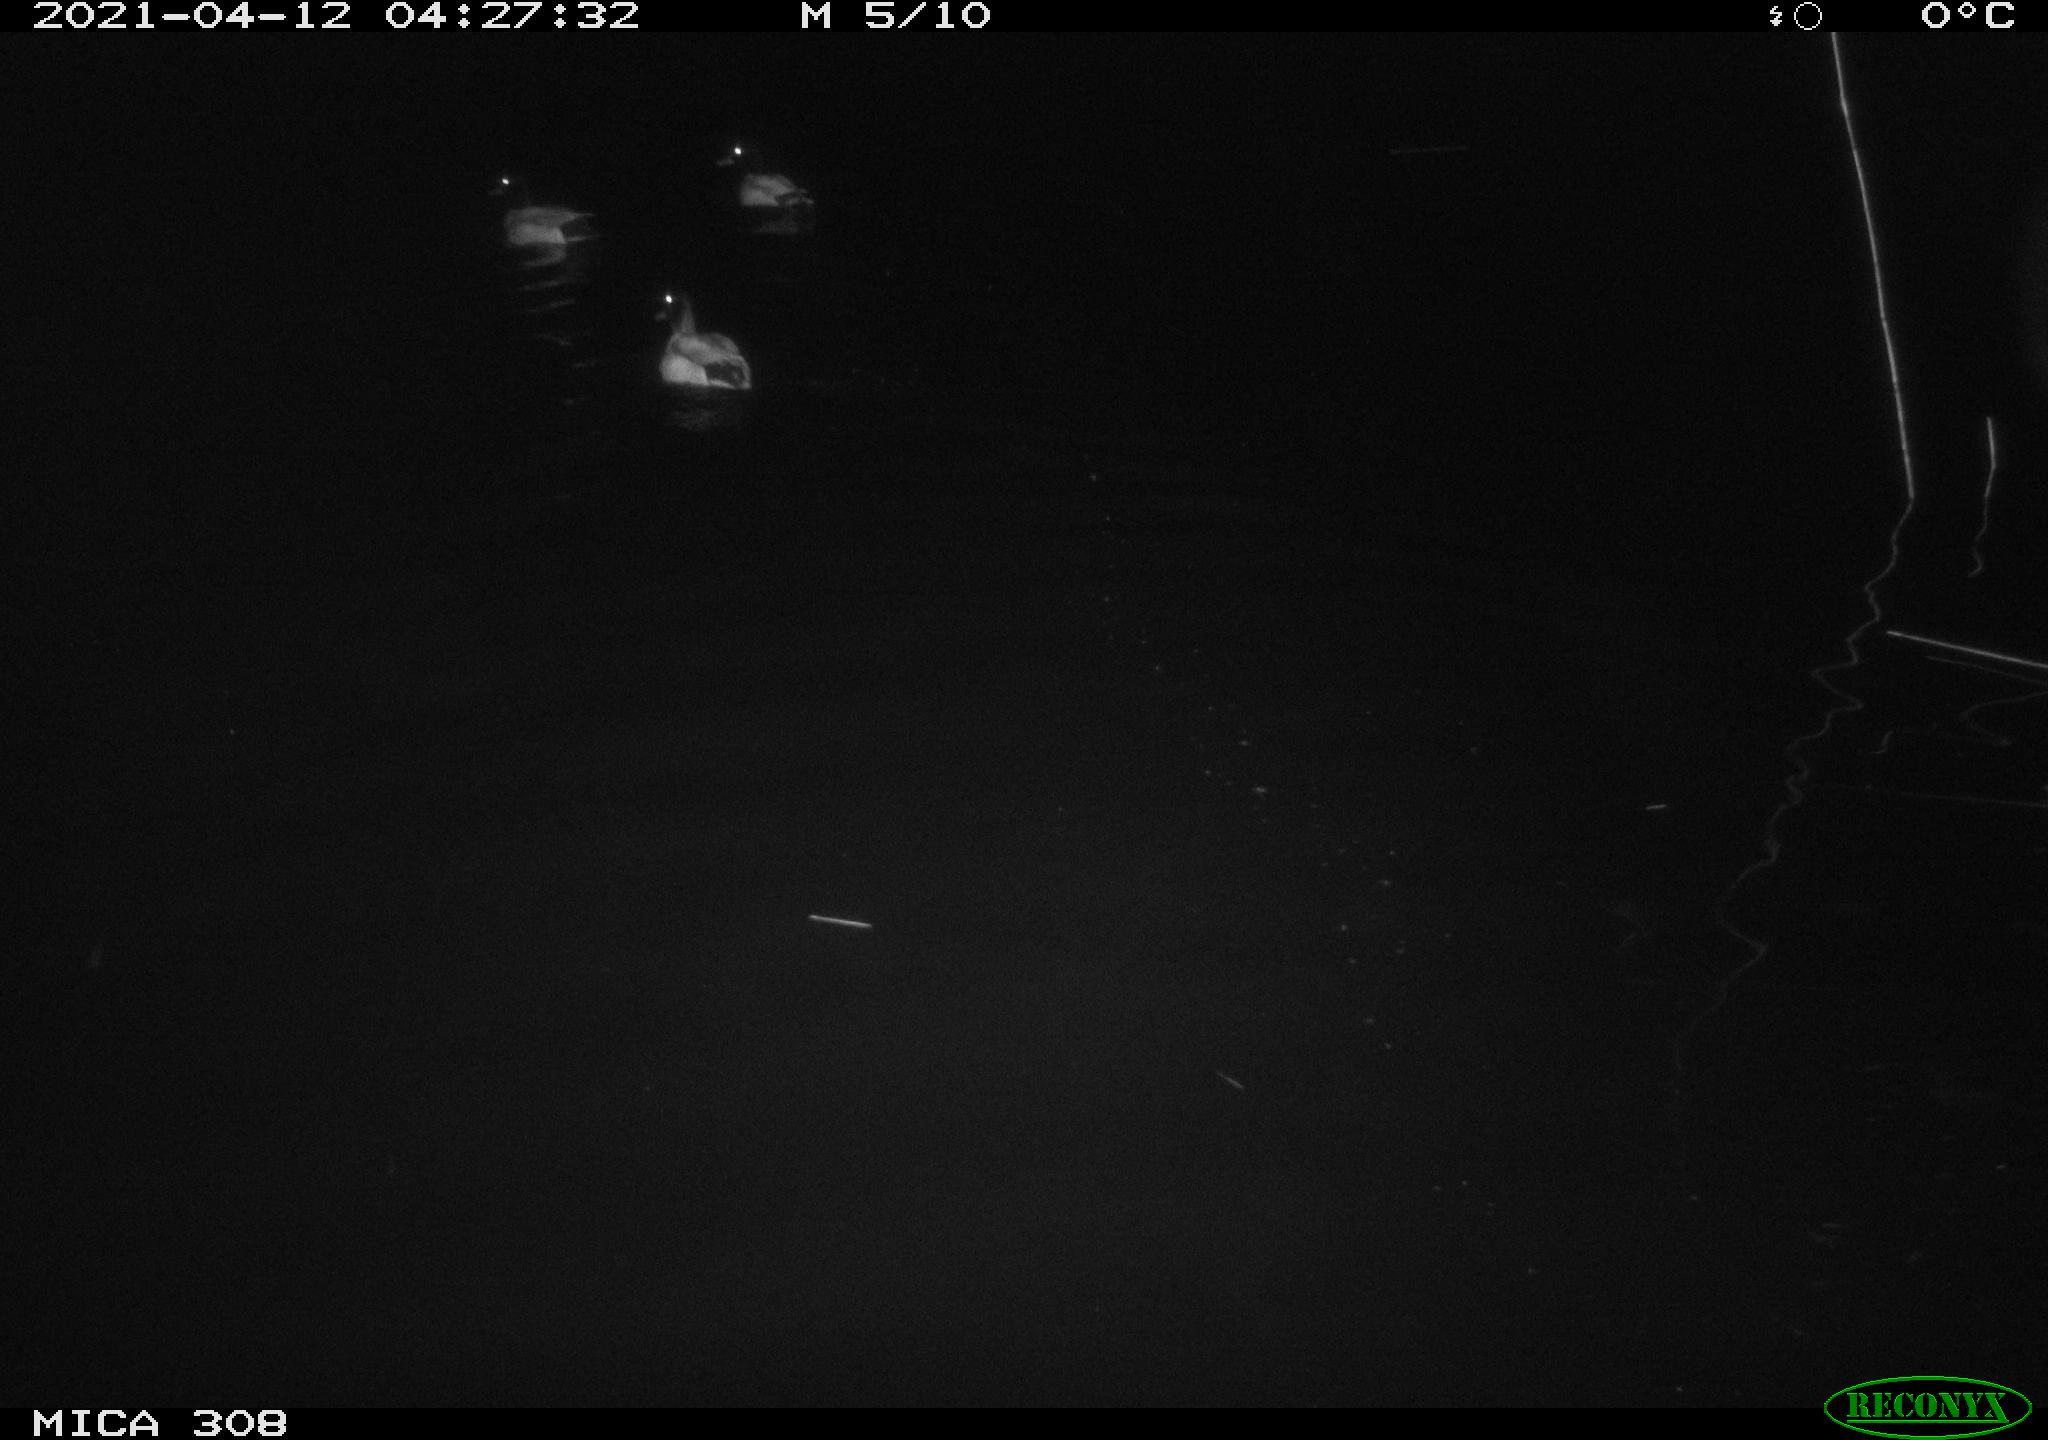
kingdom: Animalia
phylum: Chordata
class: Aves
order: Anseriformes
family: Anatidae
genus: Anas
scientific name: Anas platyrhynchos
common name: Mallard
